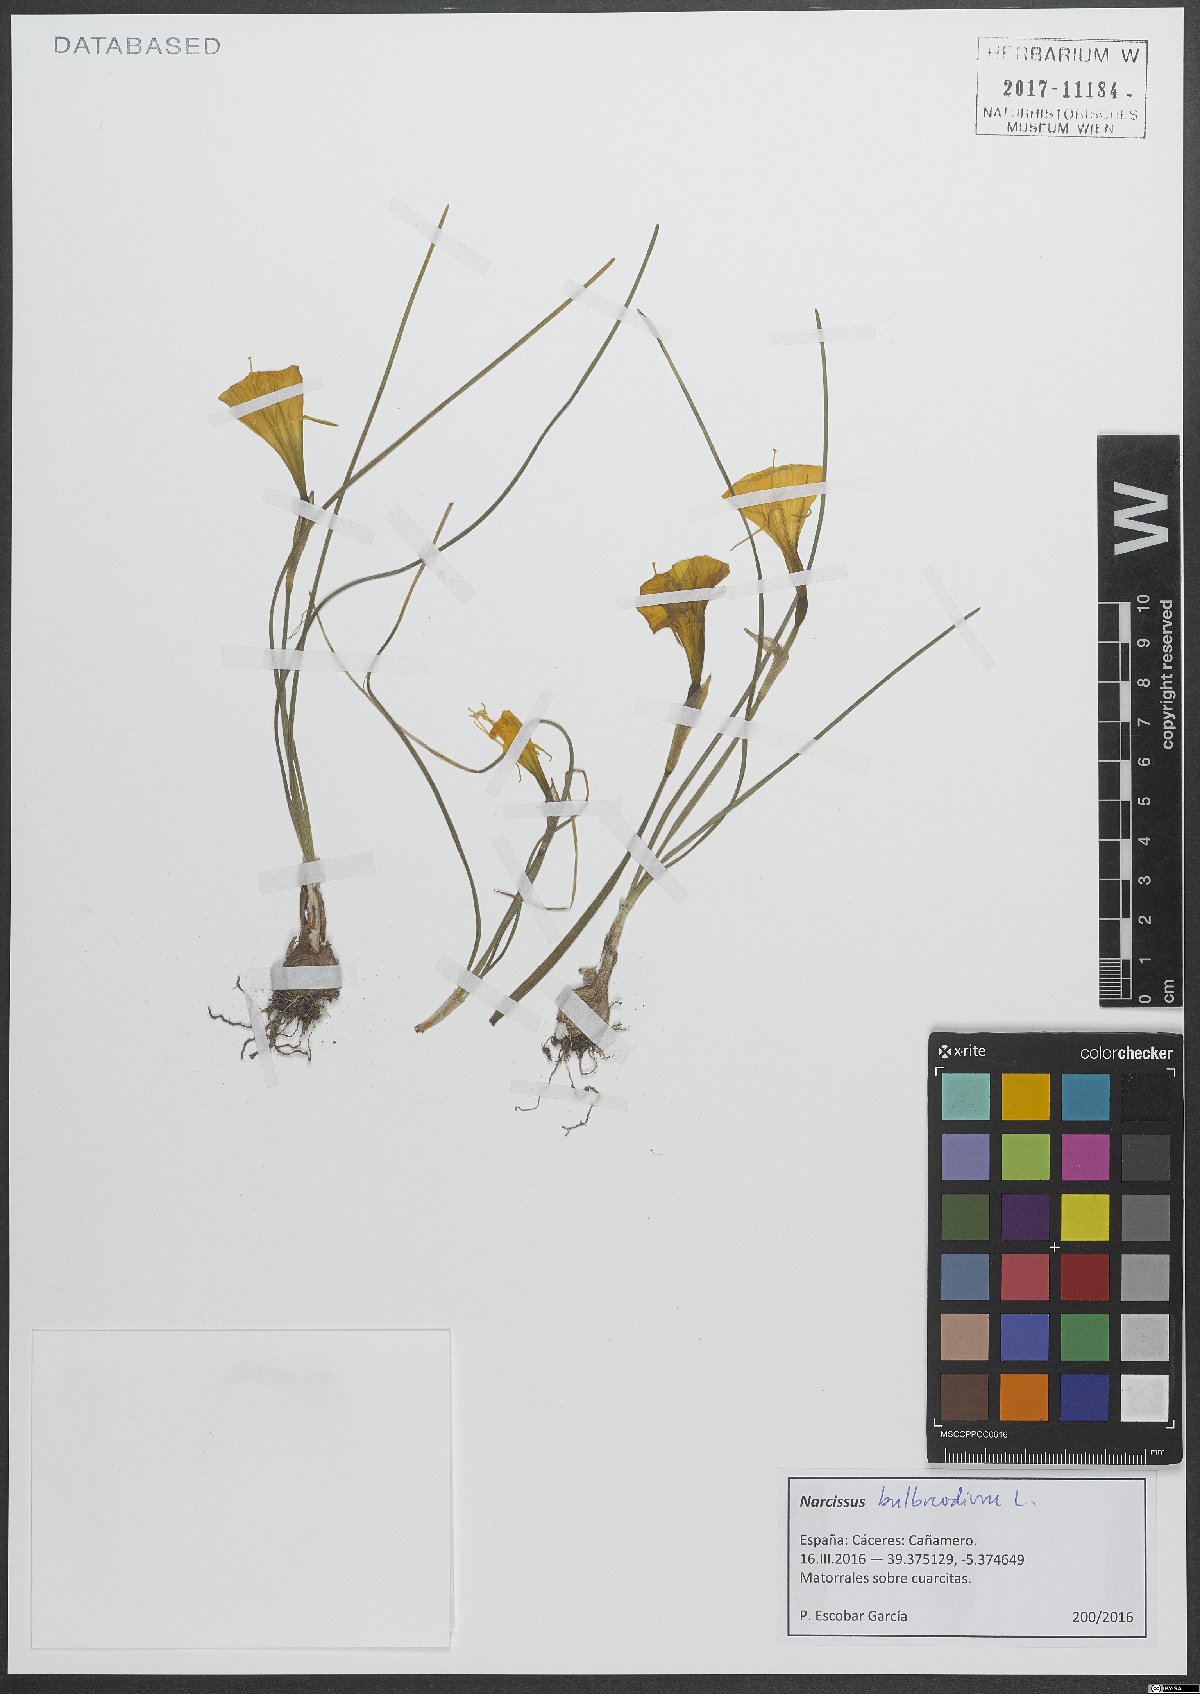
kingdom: Plantae
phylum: Tracheophyta
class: Liliopsida
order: Asparagales
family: Amaryllidaceae
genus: Narcissus
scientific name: Narcissus bulbocodium
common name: Hoop-petticoat daffodil
